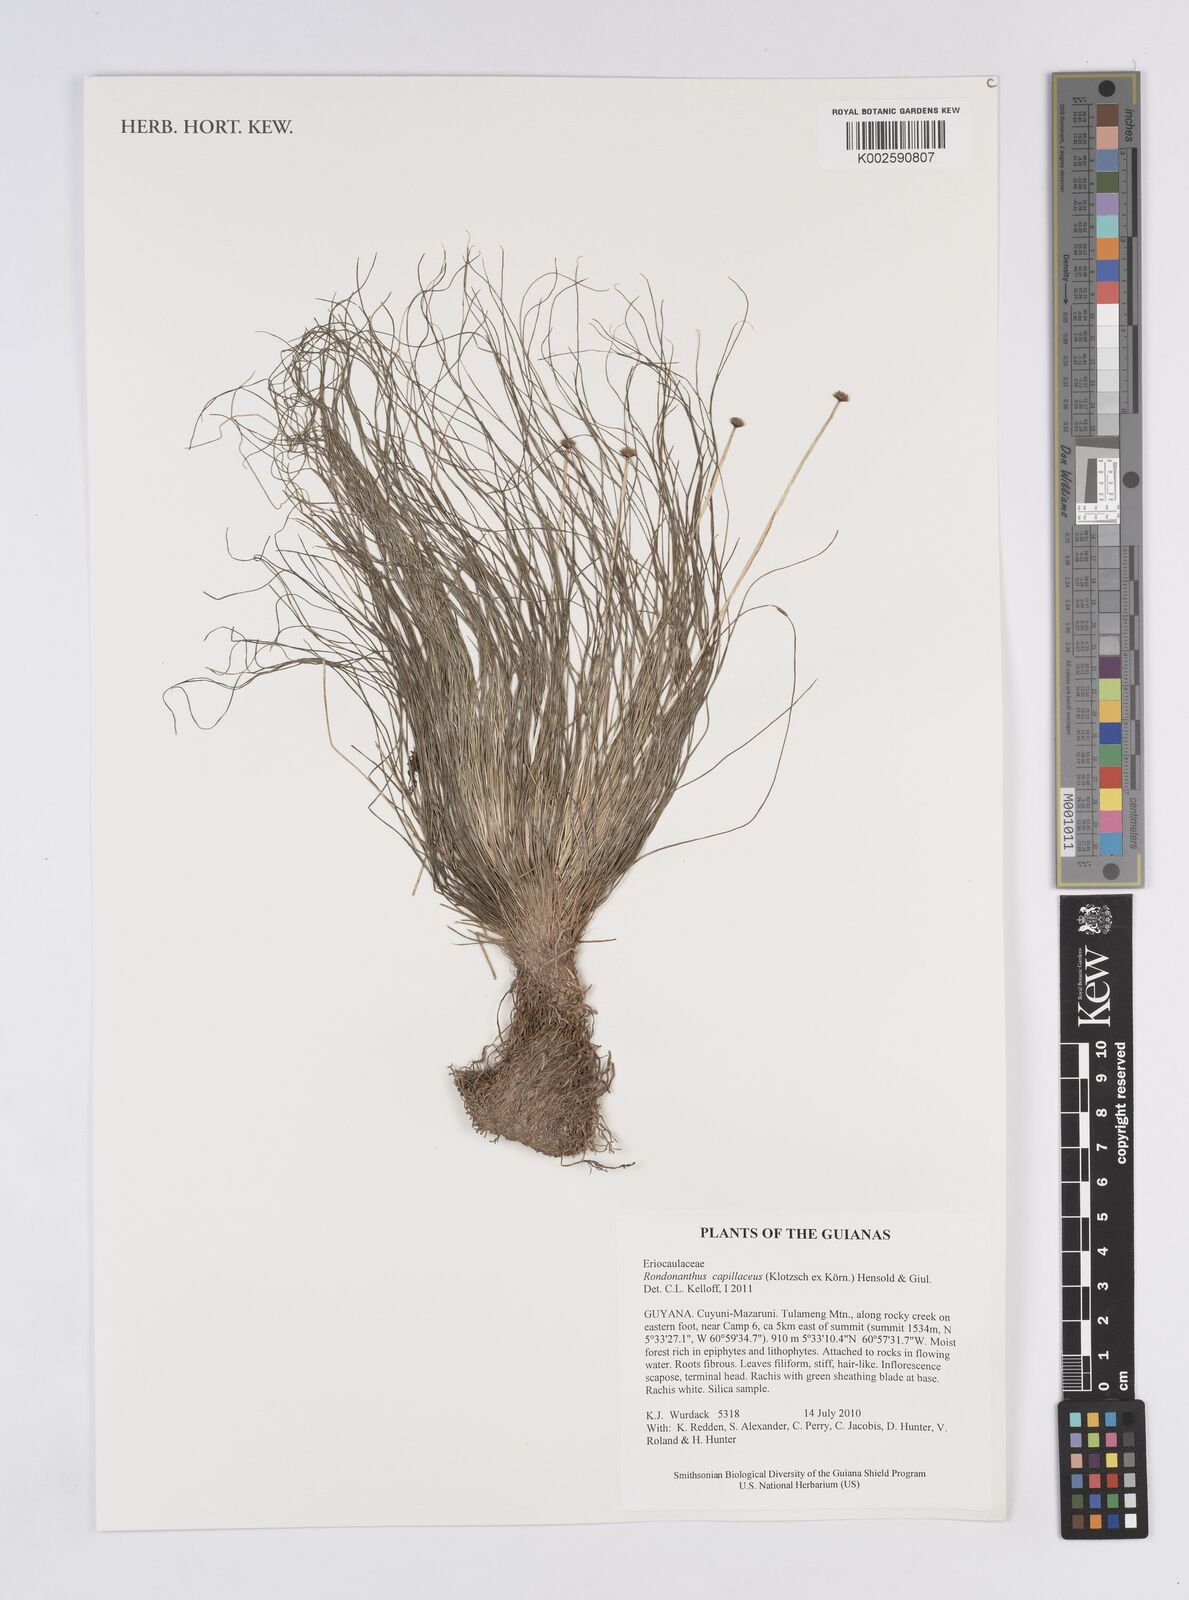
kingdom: Plantae
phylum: Tracheophyta
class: Liliopsida
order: Poales
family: Eriocaulaceae
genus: Rondonanthus
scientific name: Rondonanthus capillaceus
